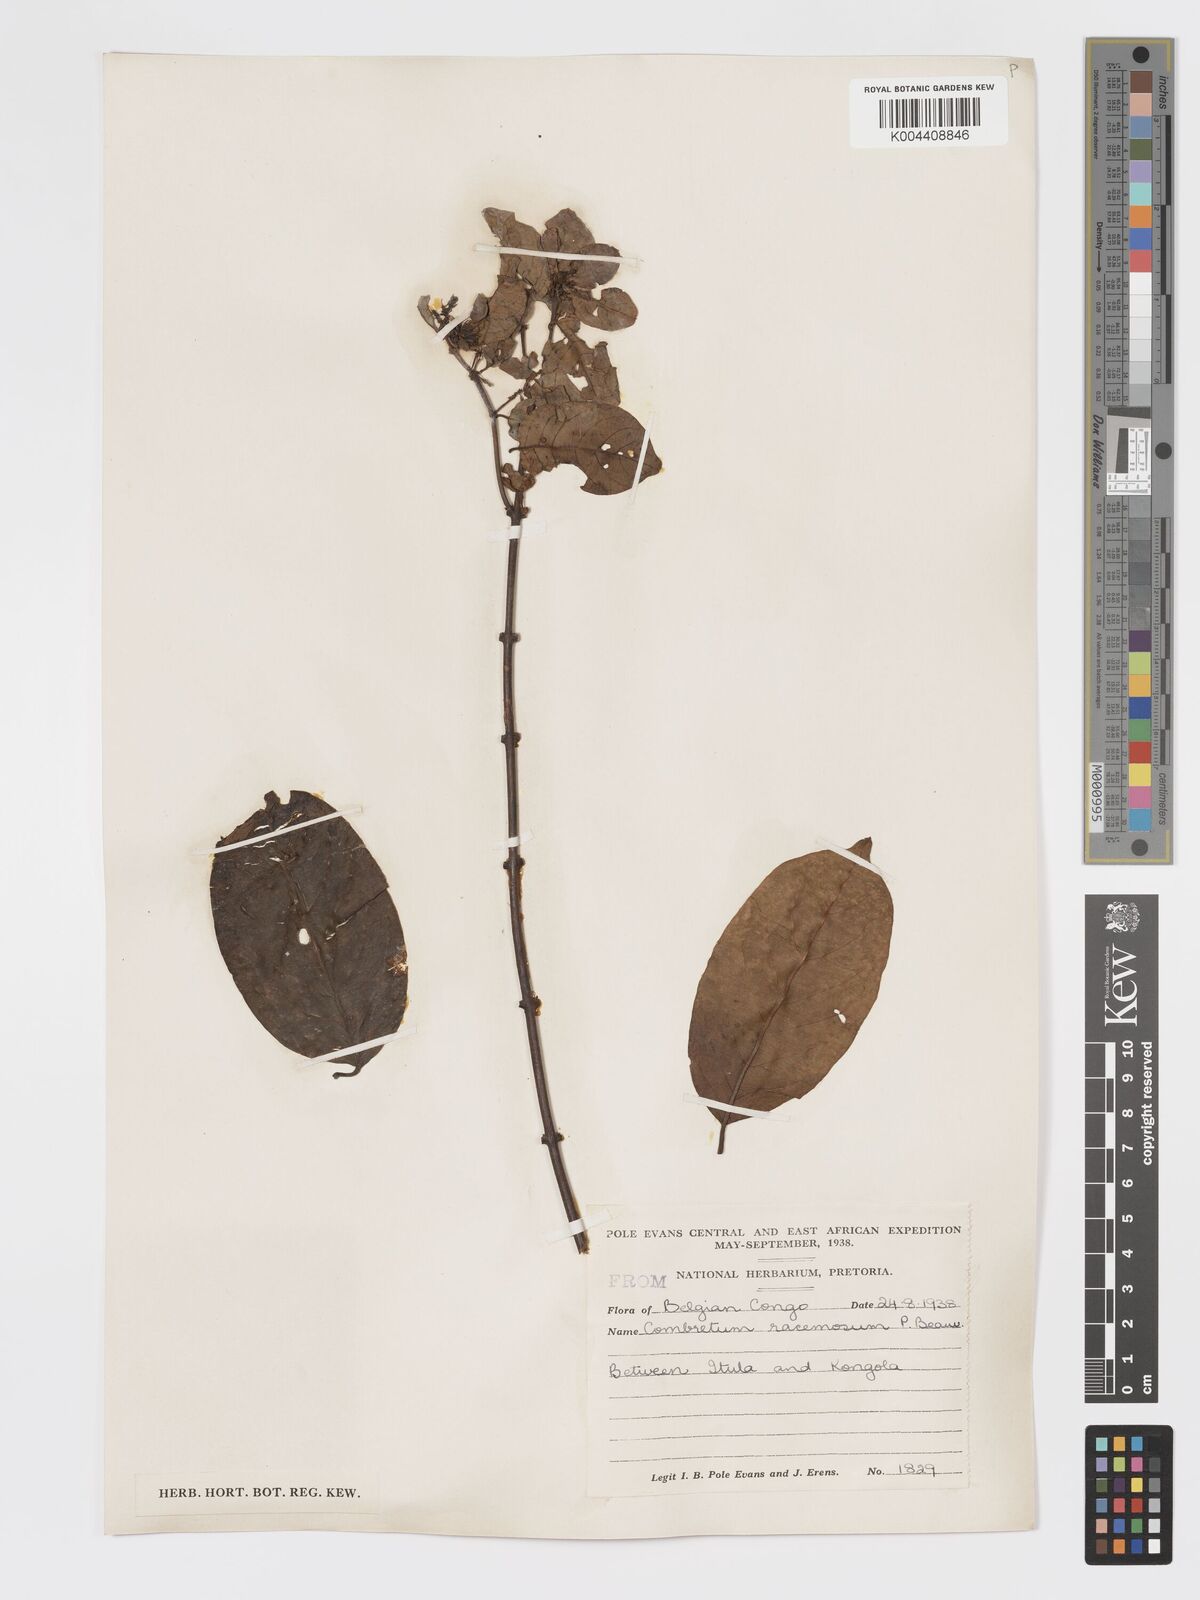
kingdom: Plantae
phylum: Tracheophyta
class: Magnoliopsida
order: Myrtales
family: Combretaceae
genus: Combretum
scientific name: Combretum racemosum
